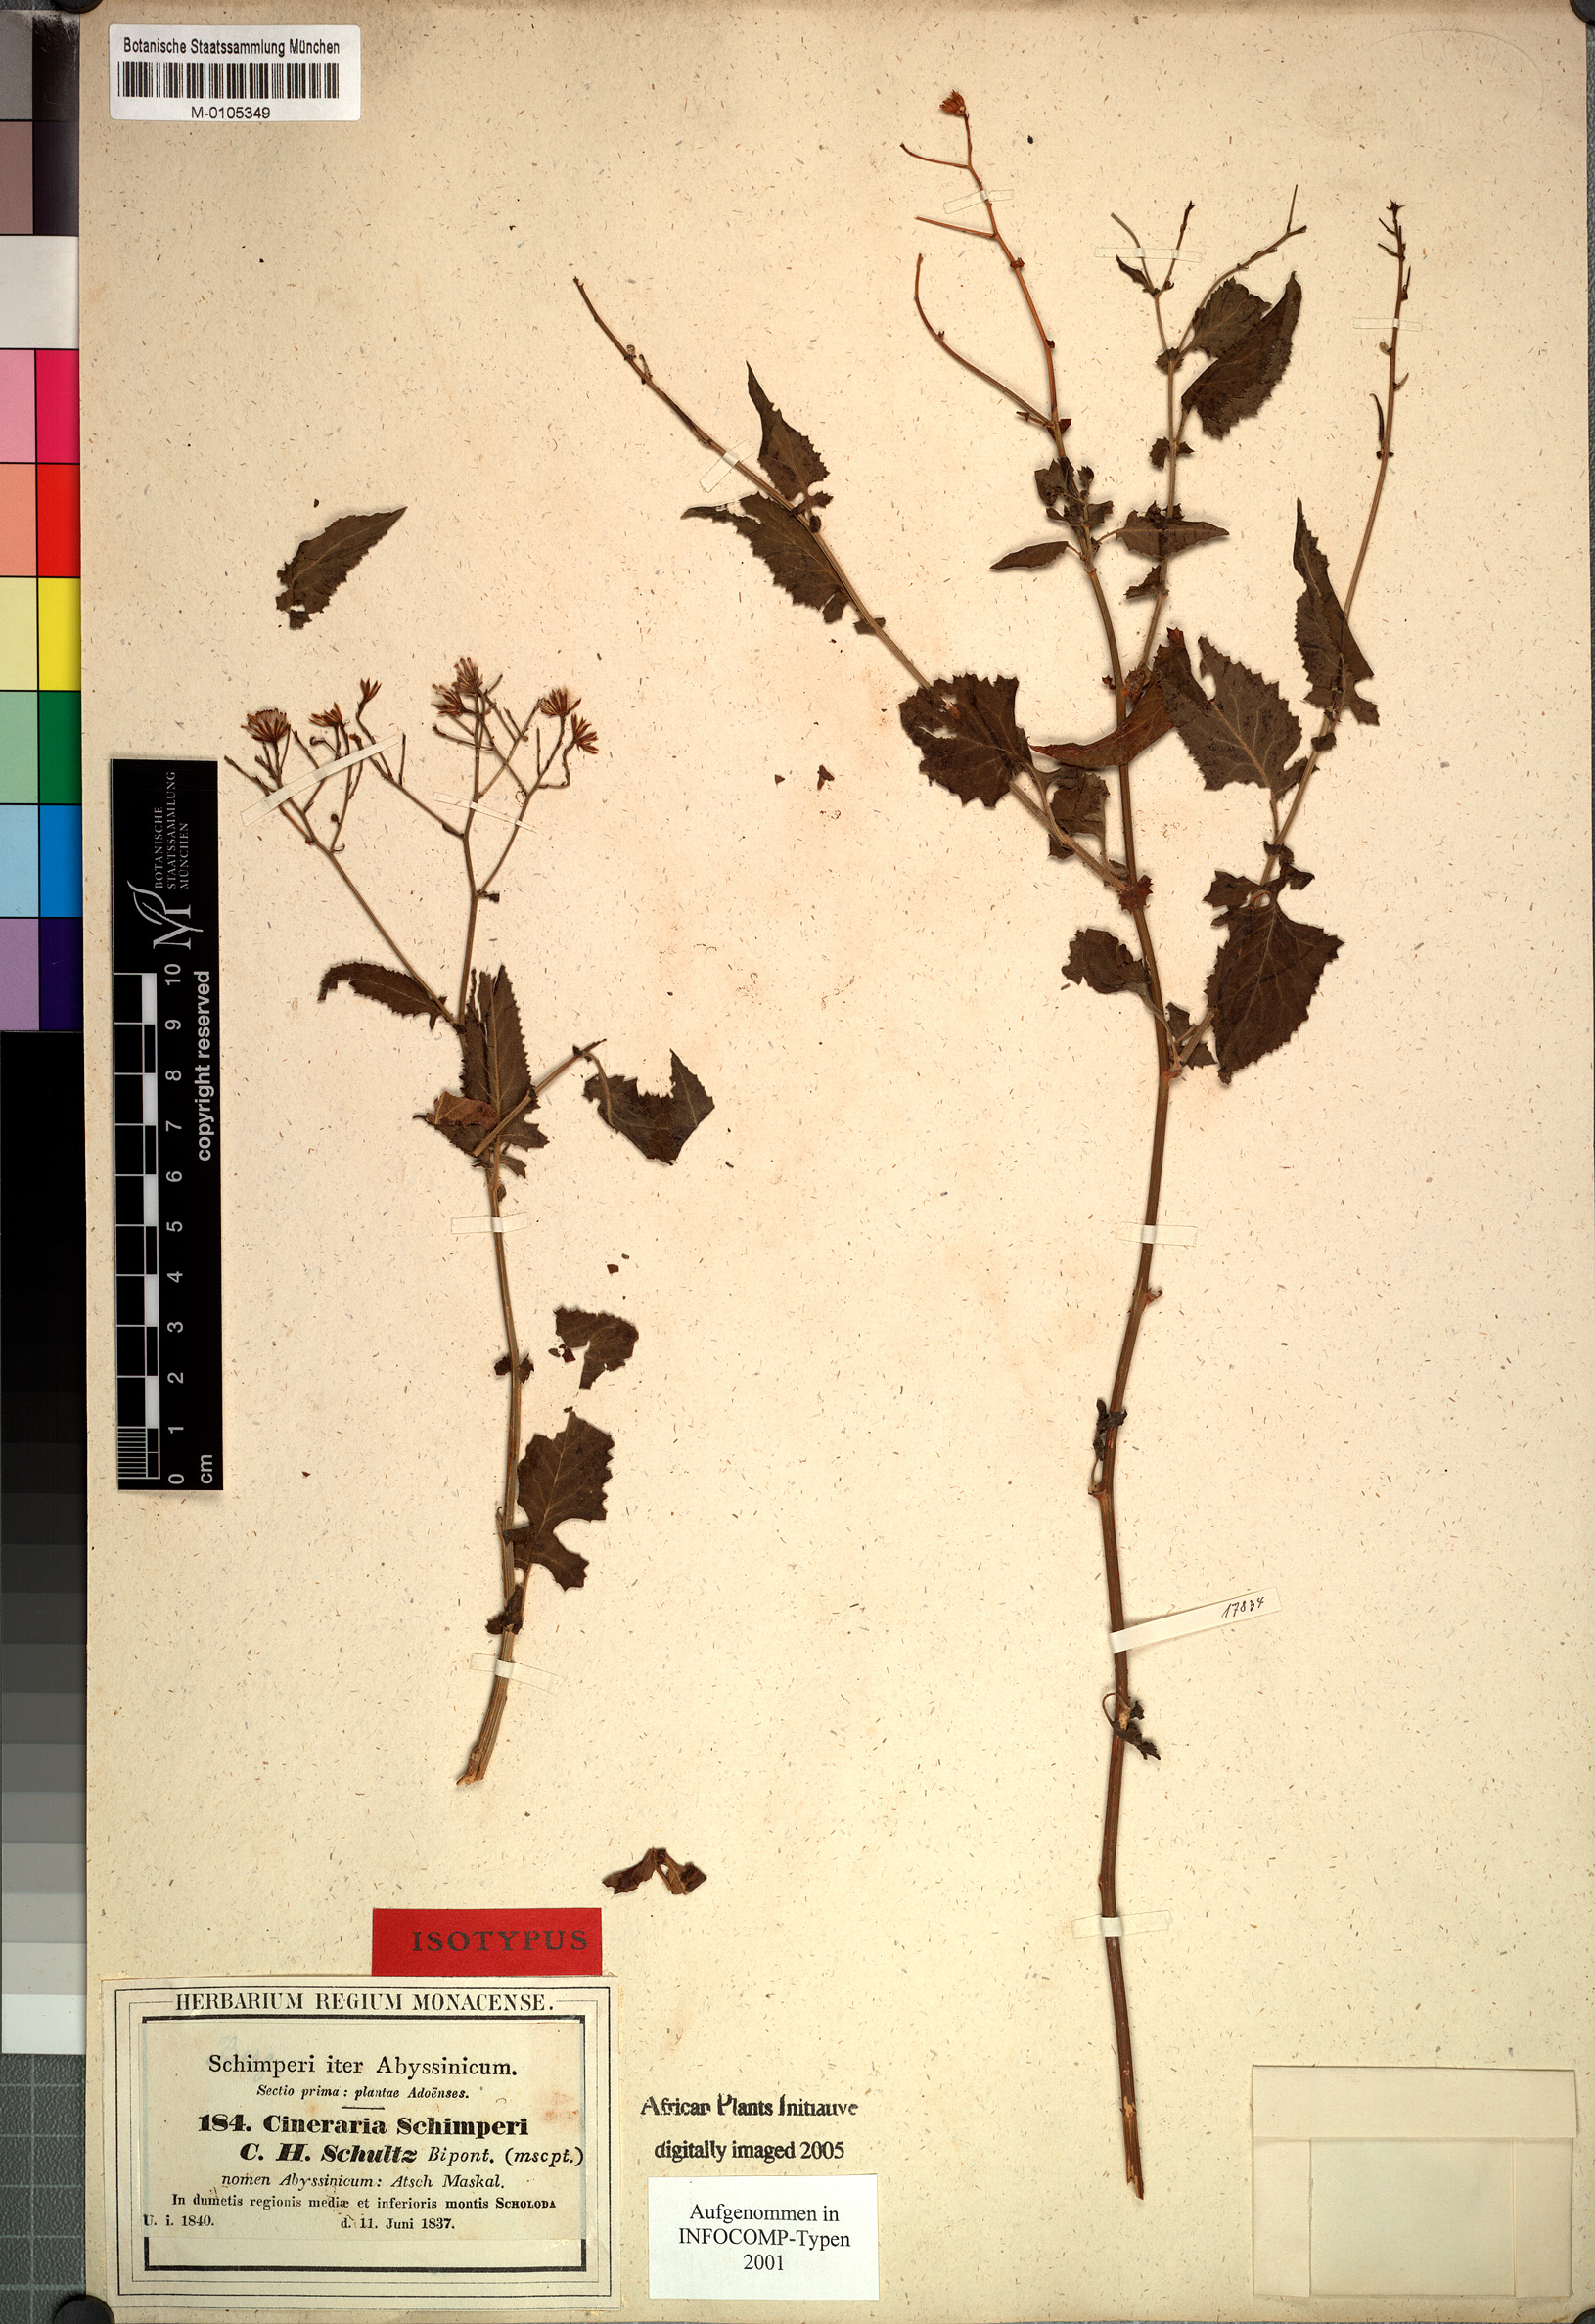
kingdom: Plantae
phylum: Tracheophyta
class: Magnoliopsida
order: Asterales
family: Asteraceae
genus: Senecio
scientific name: Senecio lyratus
